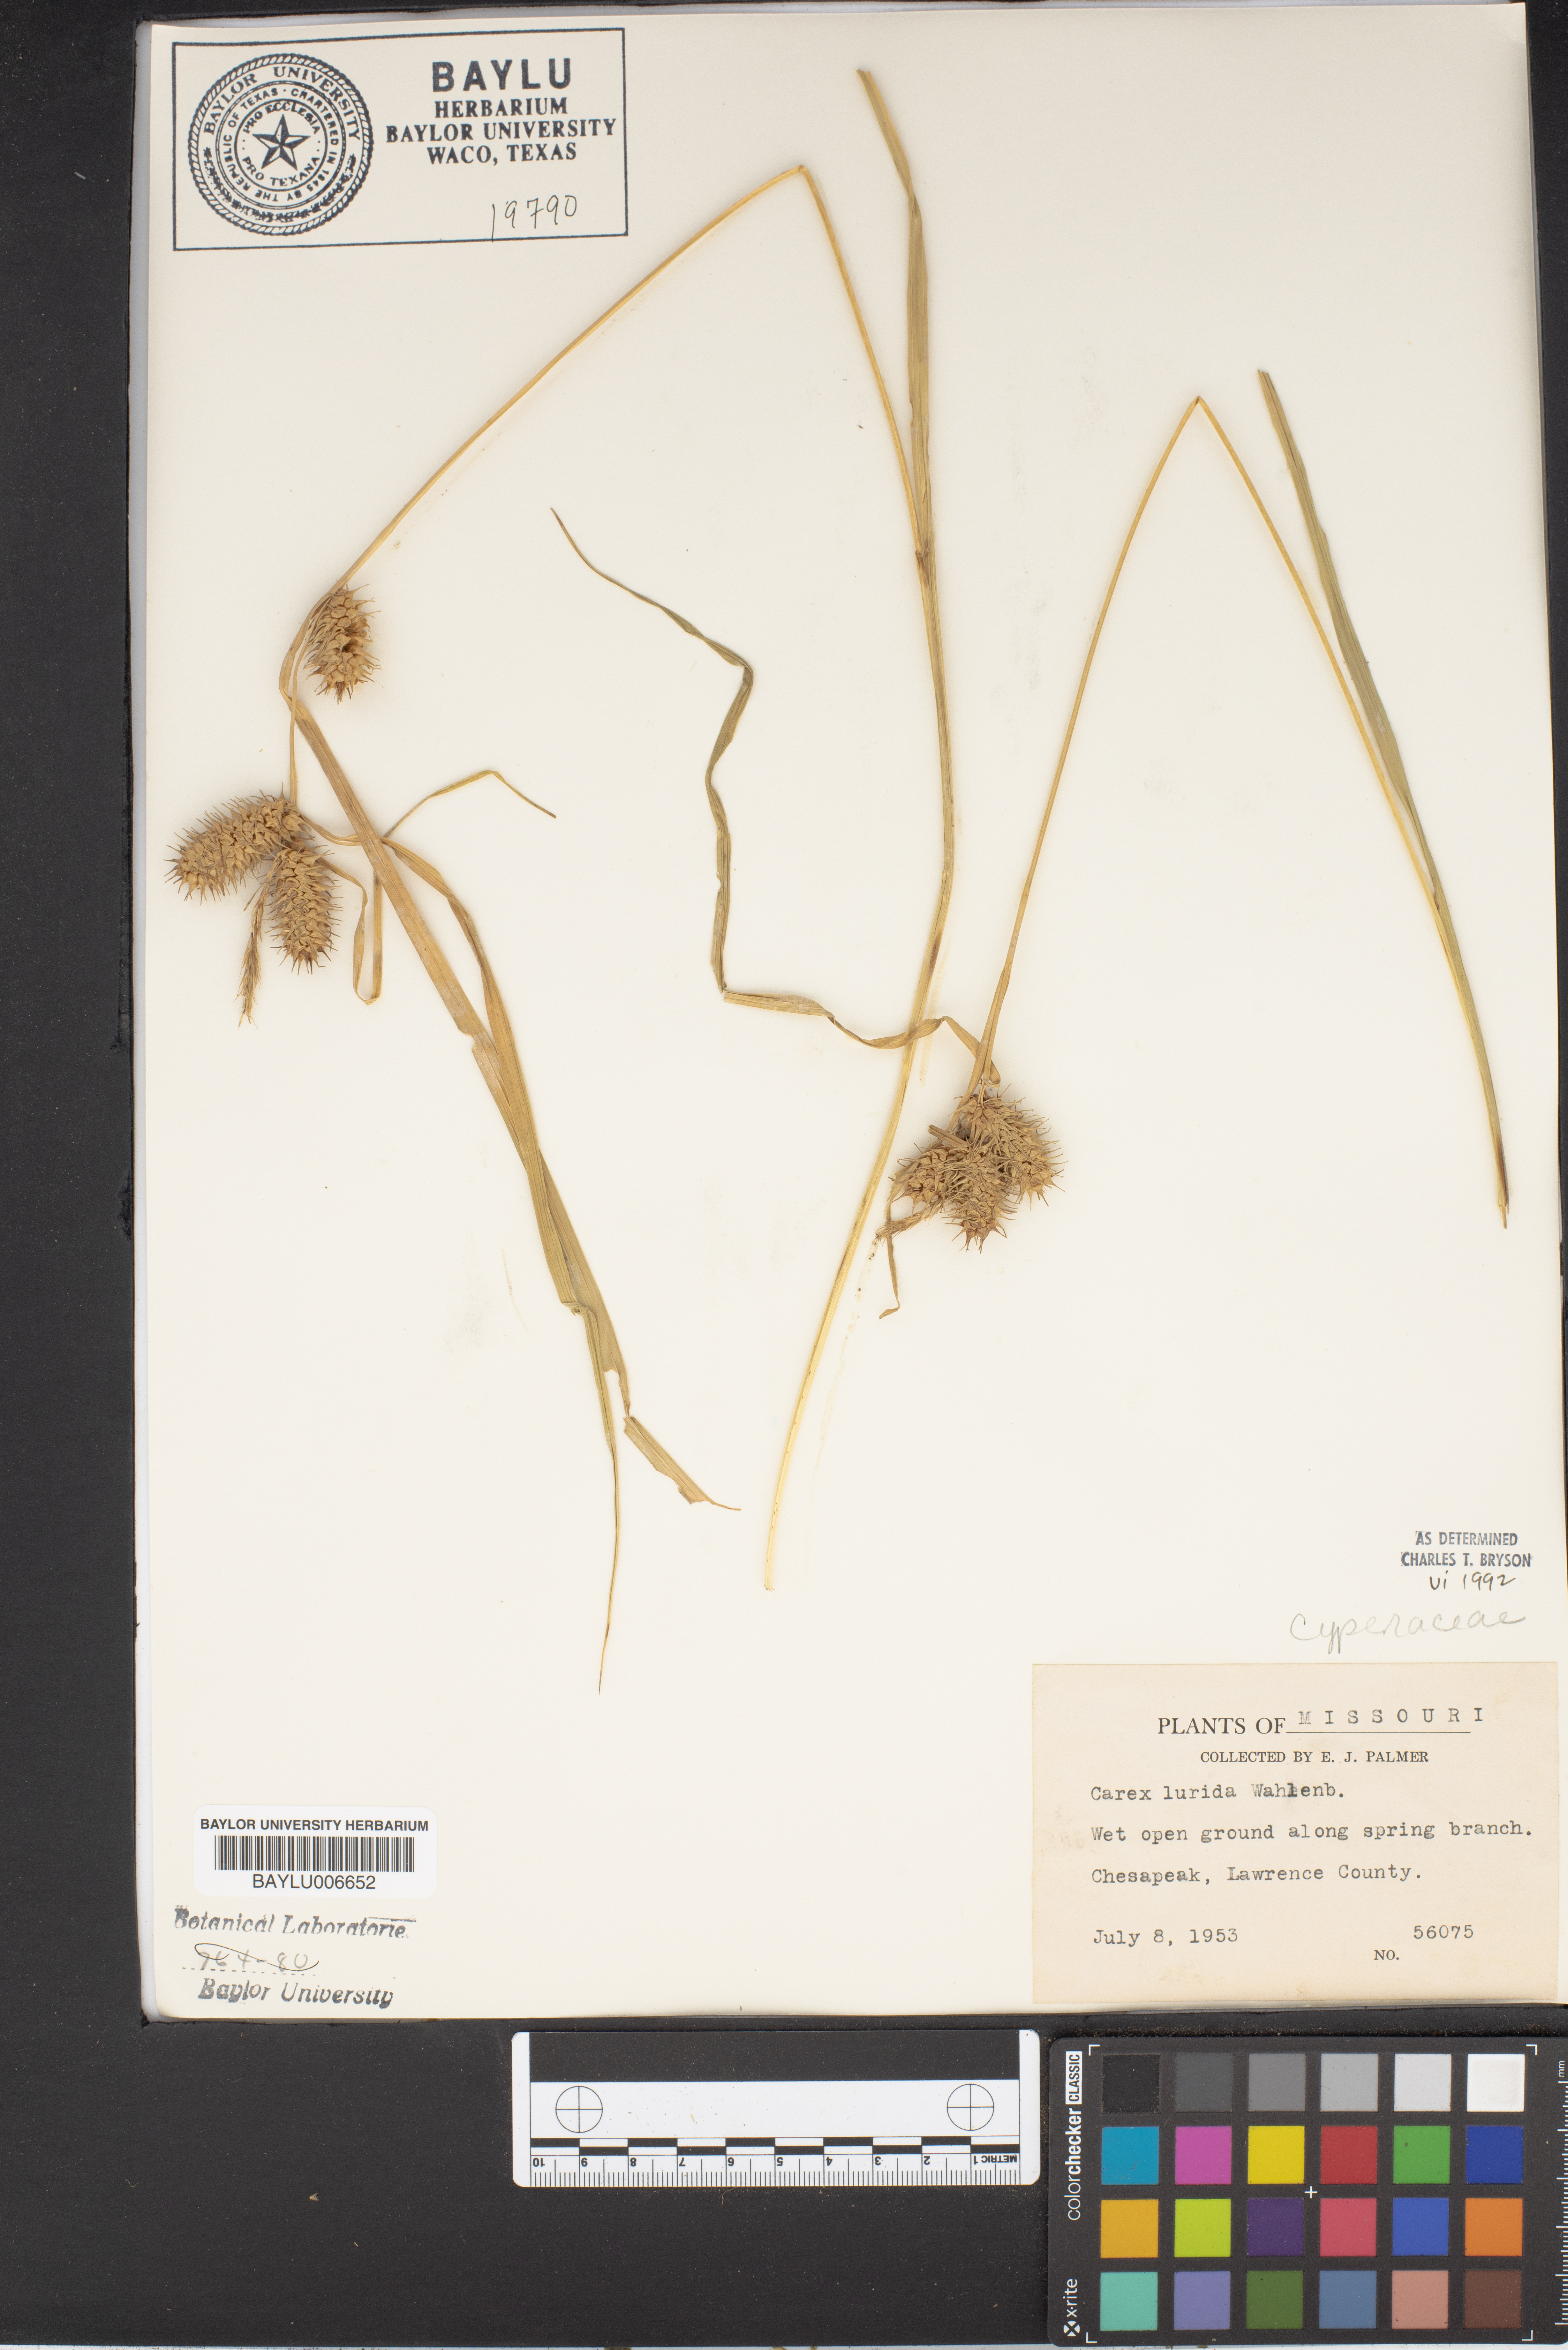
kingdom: Plantae
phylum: Tracheophyta
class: Liliopsida
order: Poales
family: Cyperaceae
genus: Carex
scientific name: Carex lurida
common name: Sallow sedge
